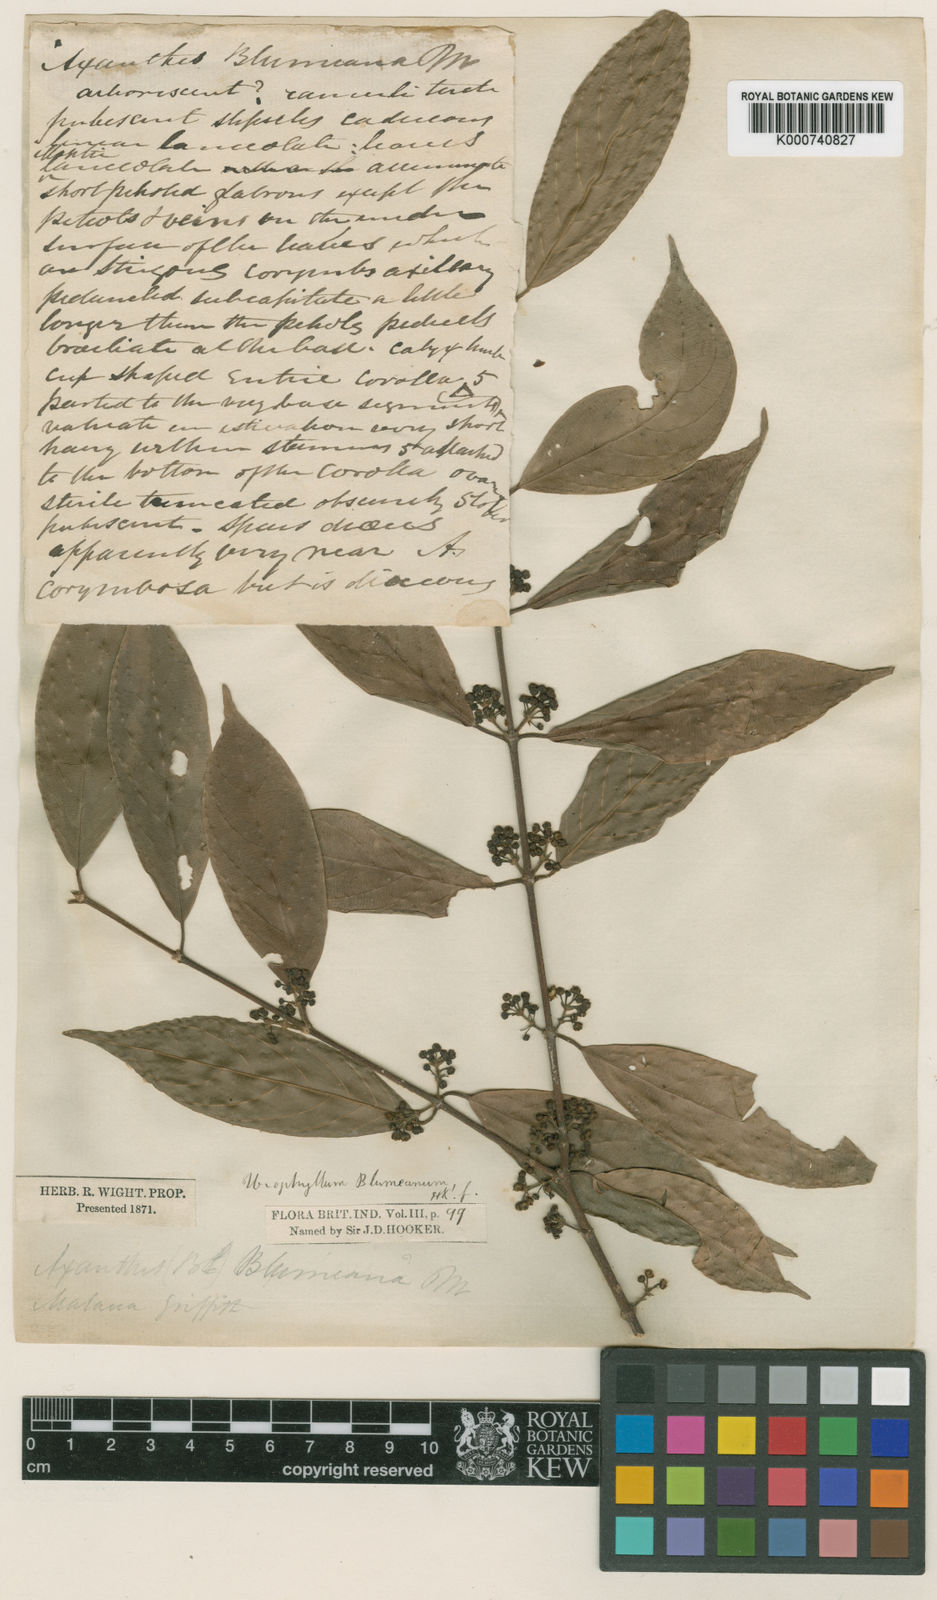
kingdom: Plantae
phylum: Tracheophyta
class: Magnoliopsida
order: Gentianales
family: Rubiaceae
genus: Urophyllum
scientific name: Urophyllum glabrum
